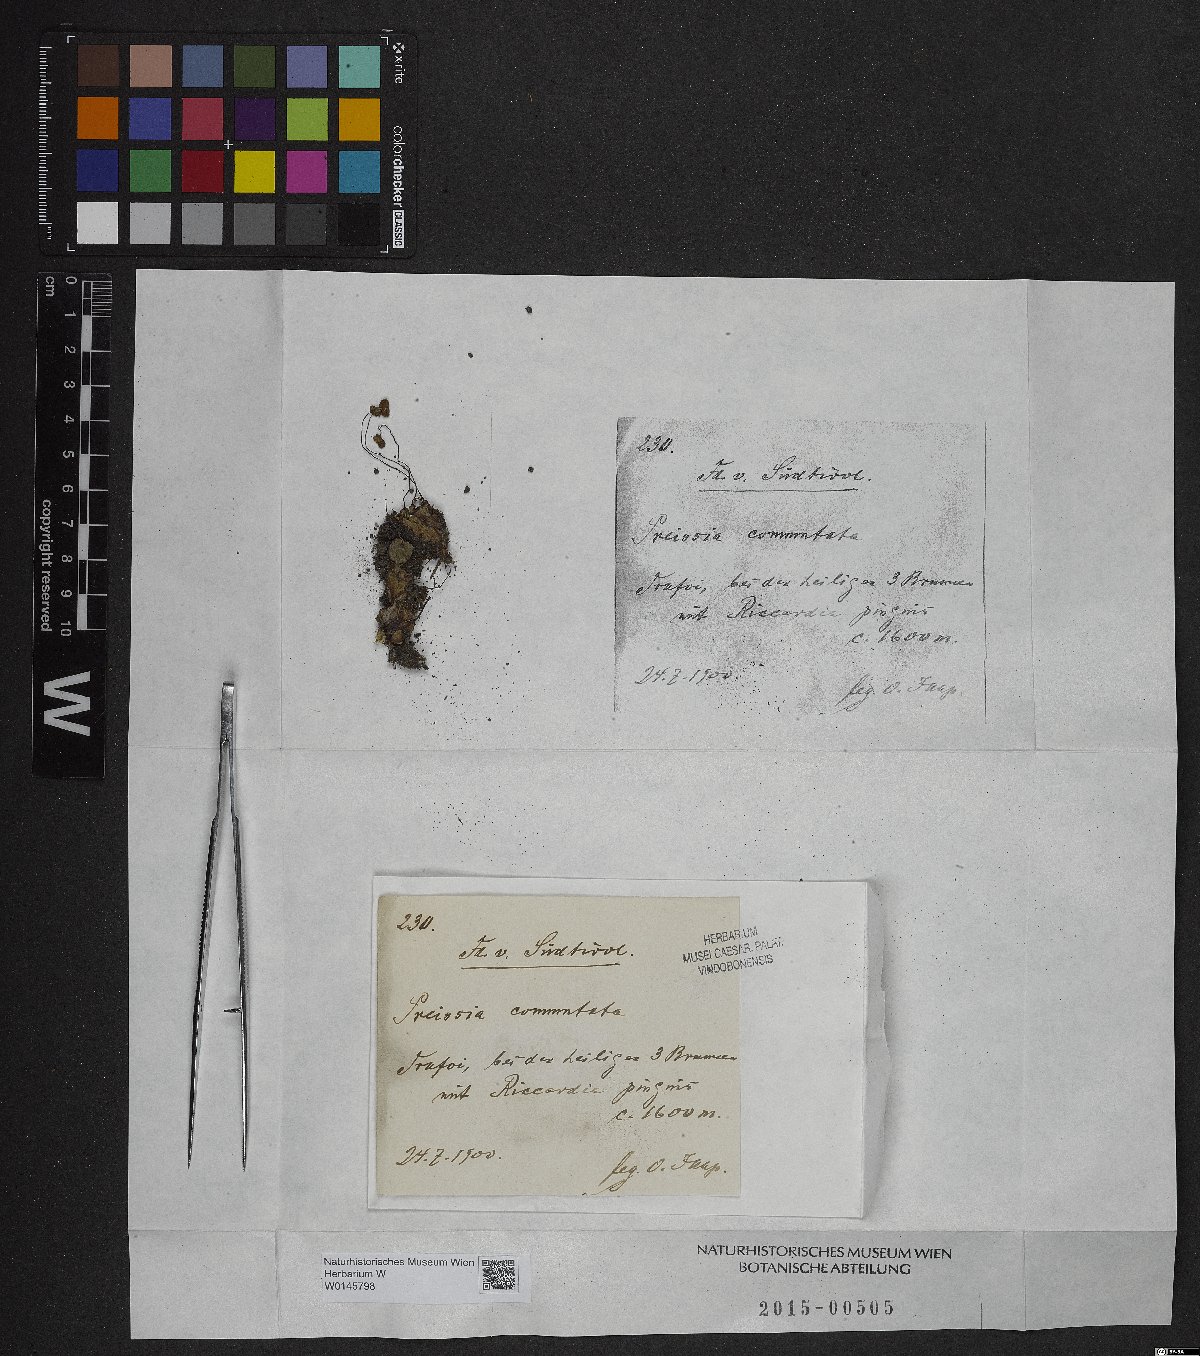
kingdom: Plantae
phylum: Marchantiophyta
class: Marchantiopsida
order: Marchantiales
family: Marchantiaceae
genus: Marchantia
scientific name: Marchantia quadrata
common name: Narrow mushroom-headed liverwort
